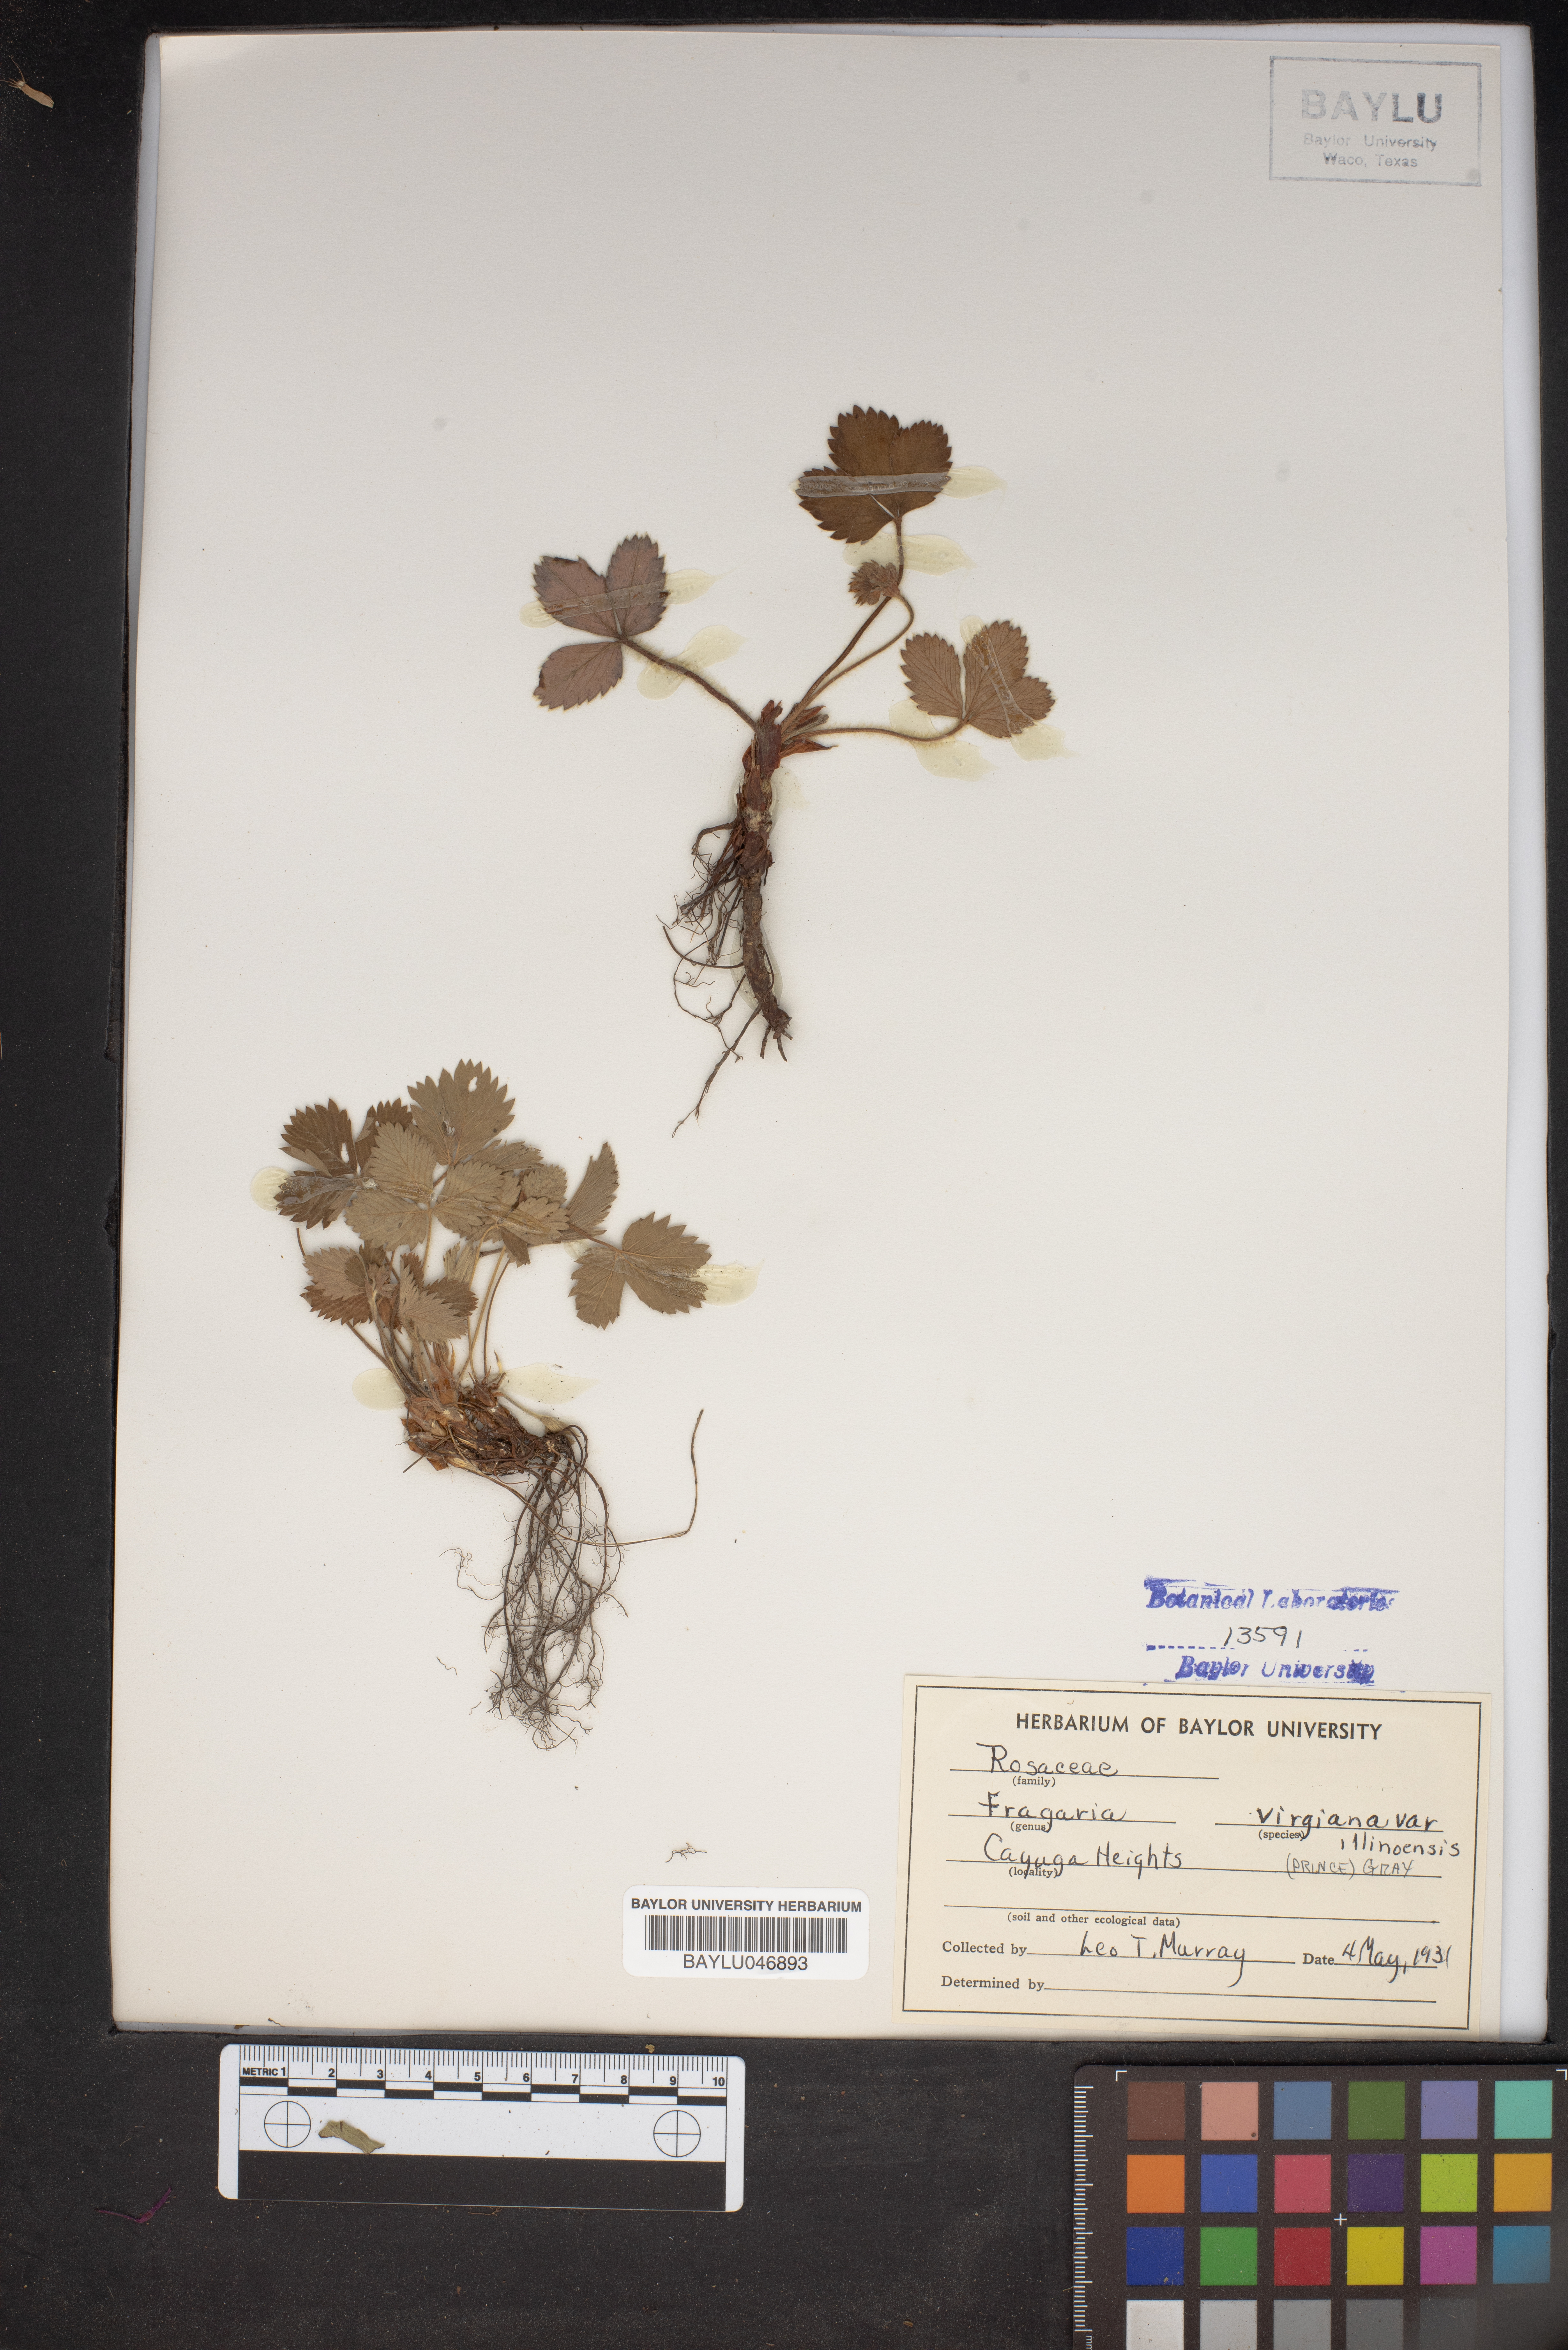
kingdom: Plantae
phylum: Tracheophyta
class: Magnoliopsida
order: Rosales
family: Rosaceae
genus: Fragaria
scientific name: Fragaria virginiana
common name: Thickleaved wild strawberry
